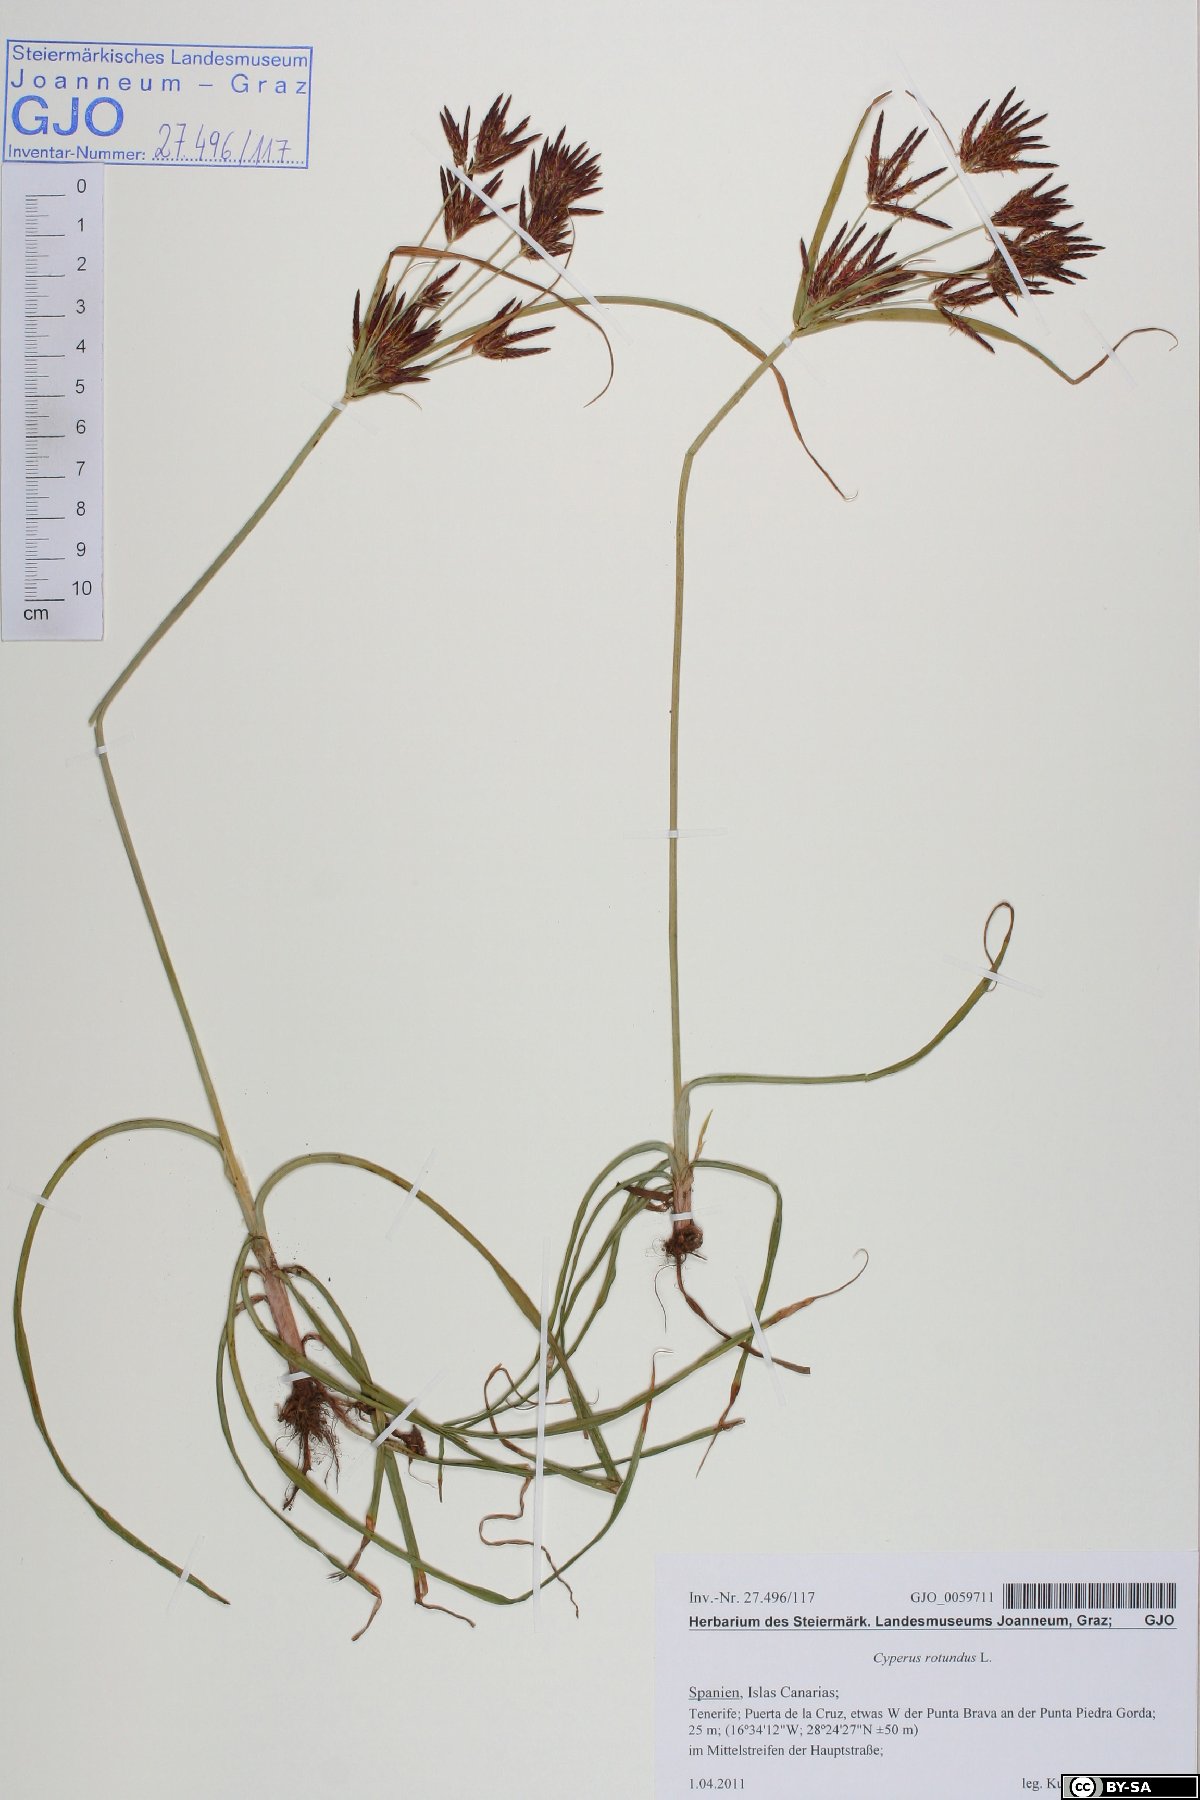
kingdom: Plantae
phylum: Tracheophyta
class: Liliopsida
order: Poales
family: Cyperaceae
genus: Cyperus
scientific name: Cyperus rotundus
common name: Nutgrass
